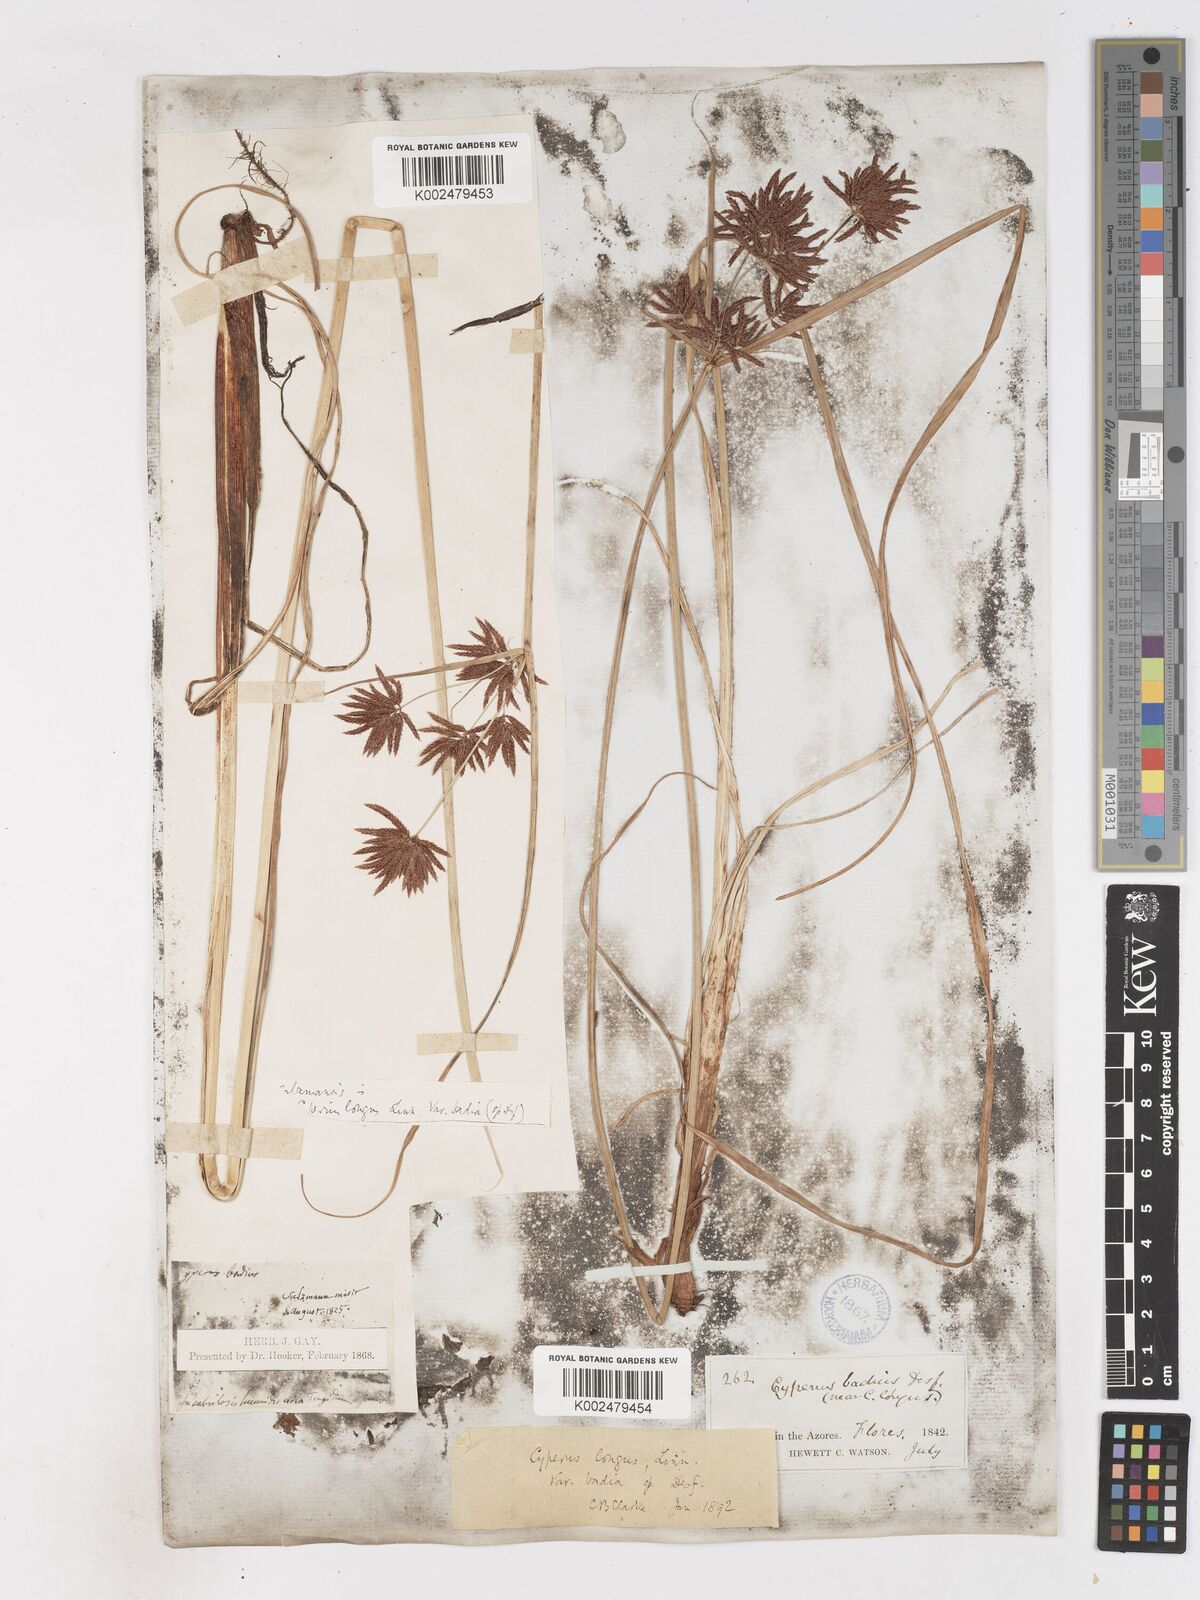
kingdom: Plantae
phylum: Tracheophyta
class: Liliopsida
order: Poales
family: Cyperaceae
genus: Cyperus
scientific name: Cyperus longus
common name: Galingale
